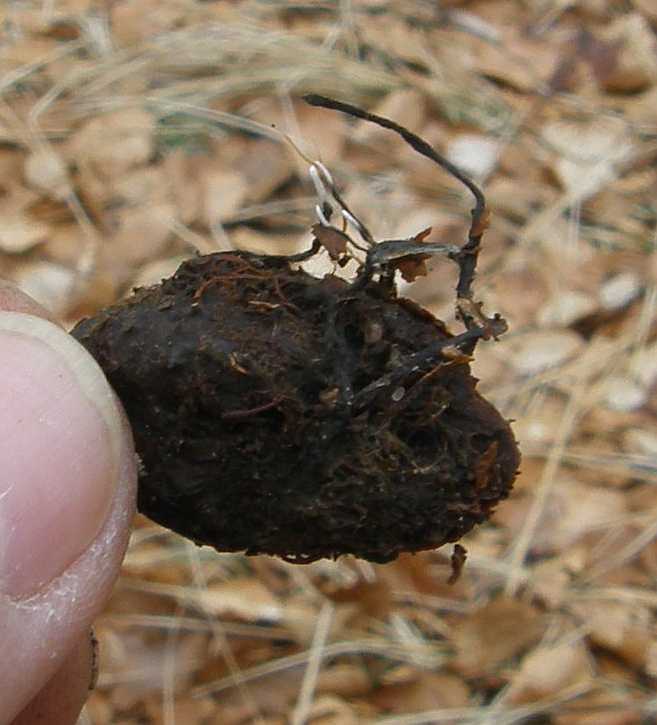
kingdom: Fungi
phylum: Ascomycota
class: Sordariomycetes
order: Xylariales
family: Xylariaceae
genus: Xylaria
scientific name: Xylaria carpophila
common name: bogskål-stødsvamp
